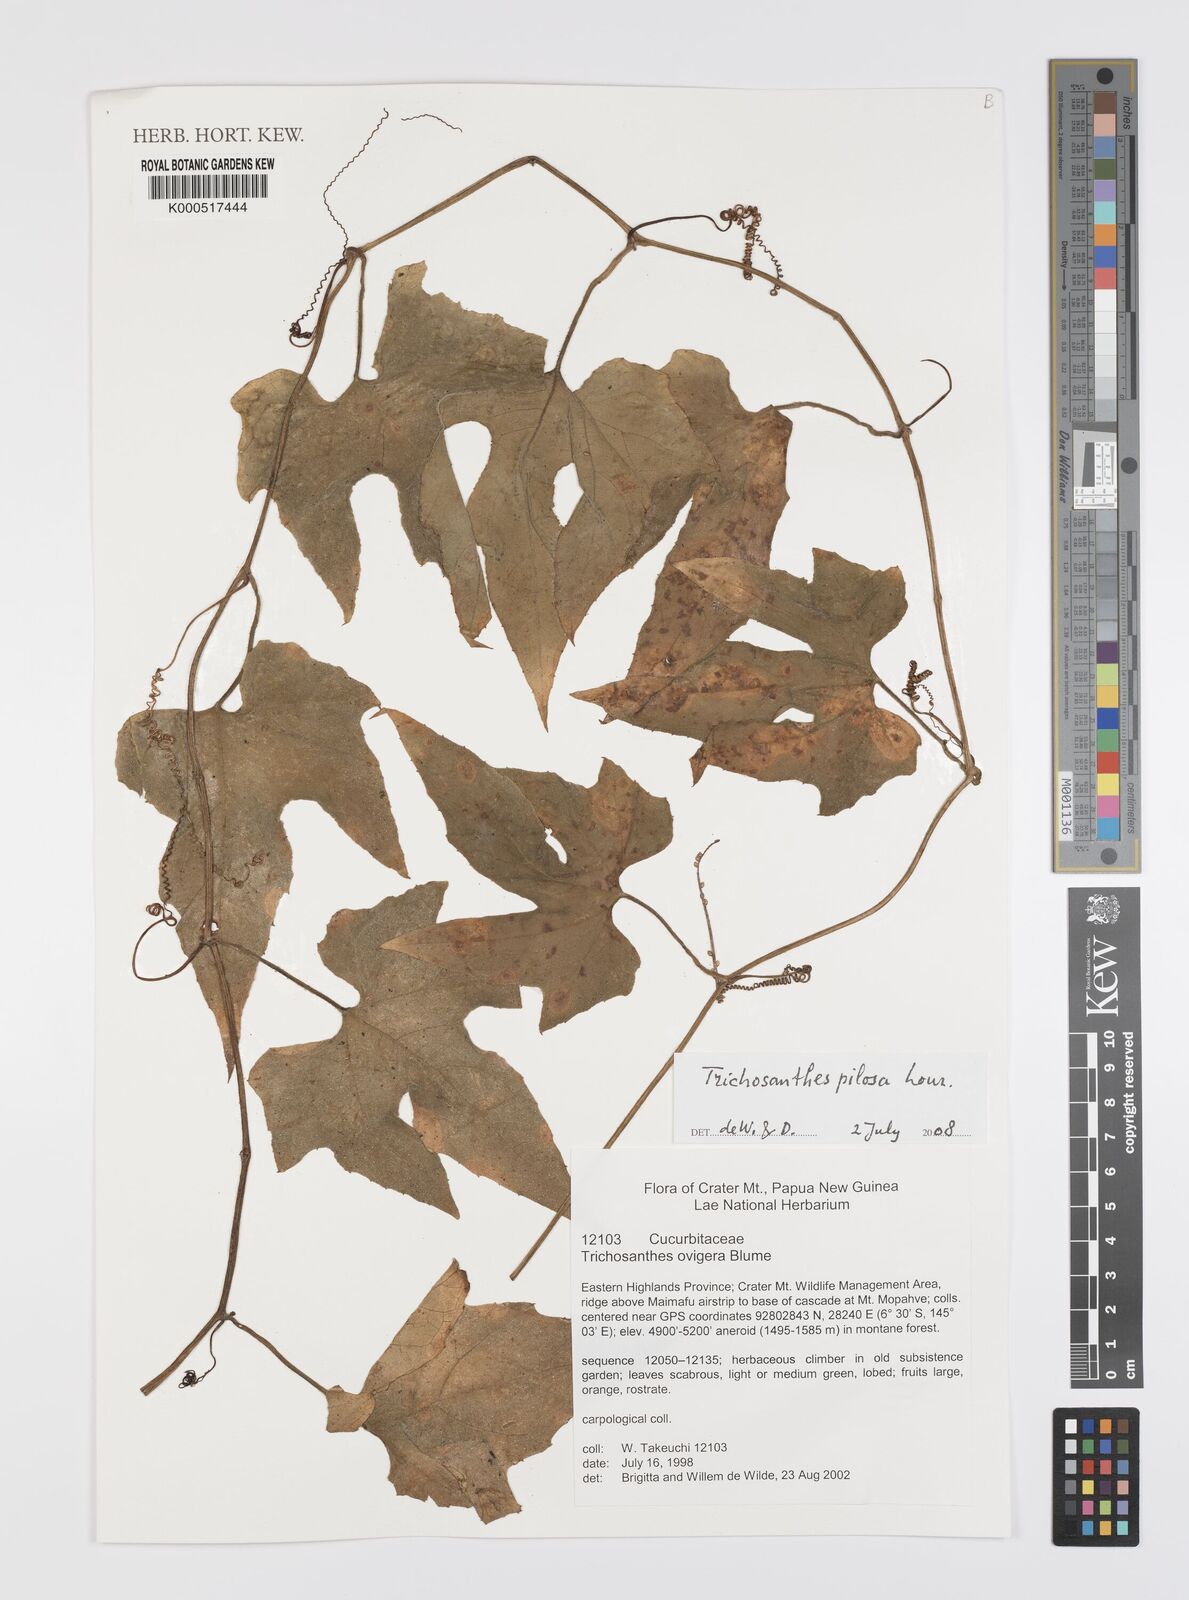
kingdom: Plantae
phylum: Tracheophyta
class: Magnoliopsida
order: Cucurbitales
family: Cucurbitaceae
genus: Trichosanthes
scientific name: Trichosanthes pilosa
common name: Snake gourd
